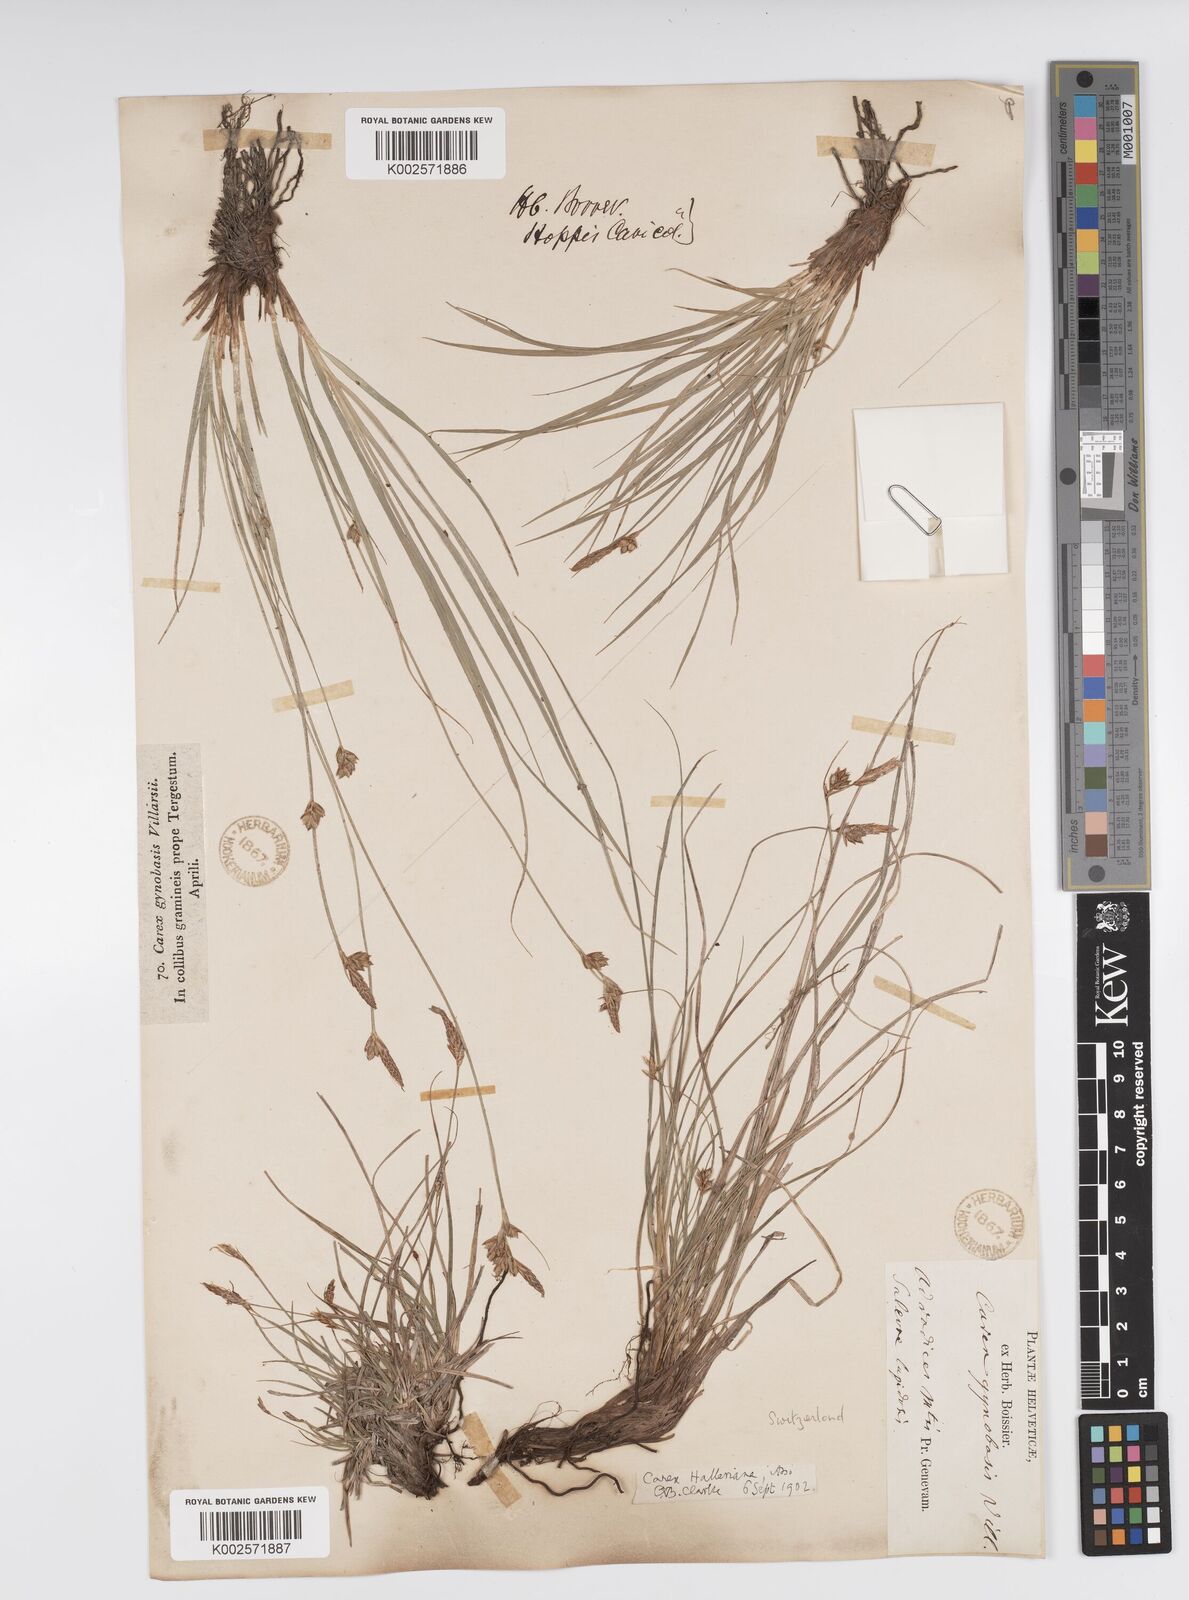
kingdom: Plantae
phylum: Tracheophyta
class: Liliopsida
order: Poales
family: Cyperaceae
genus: Carex
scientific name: Carex halleriana
